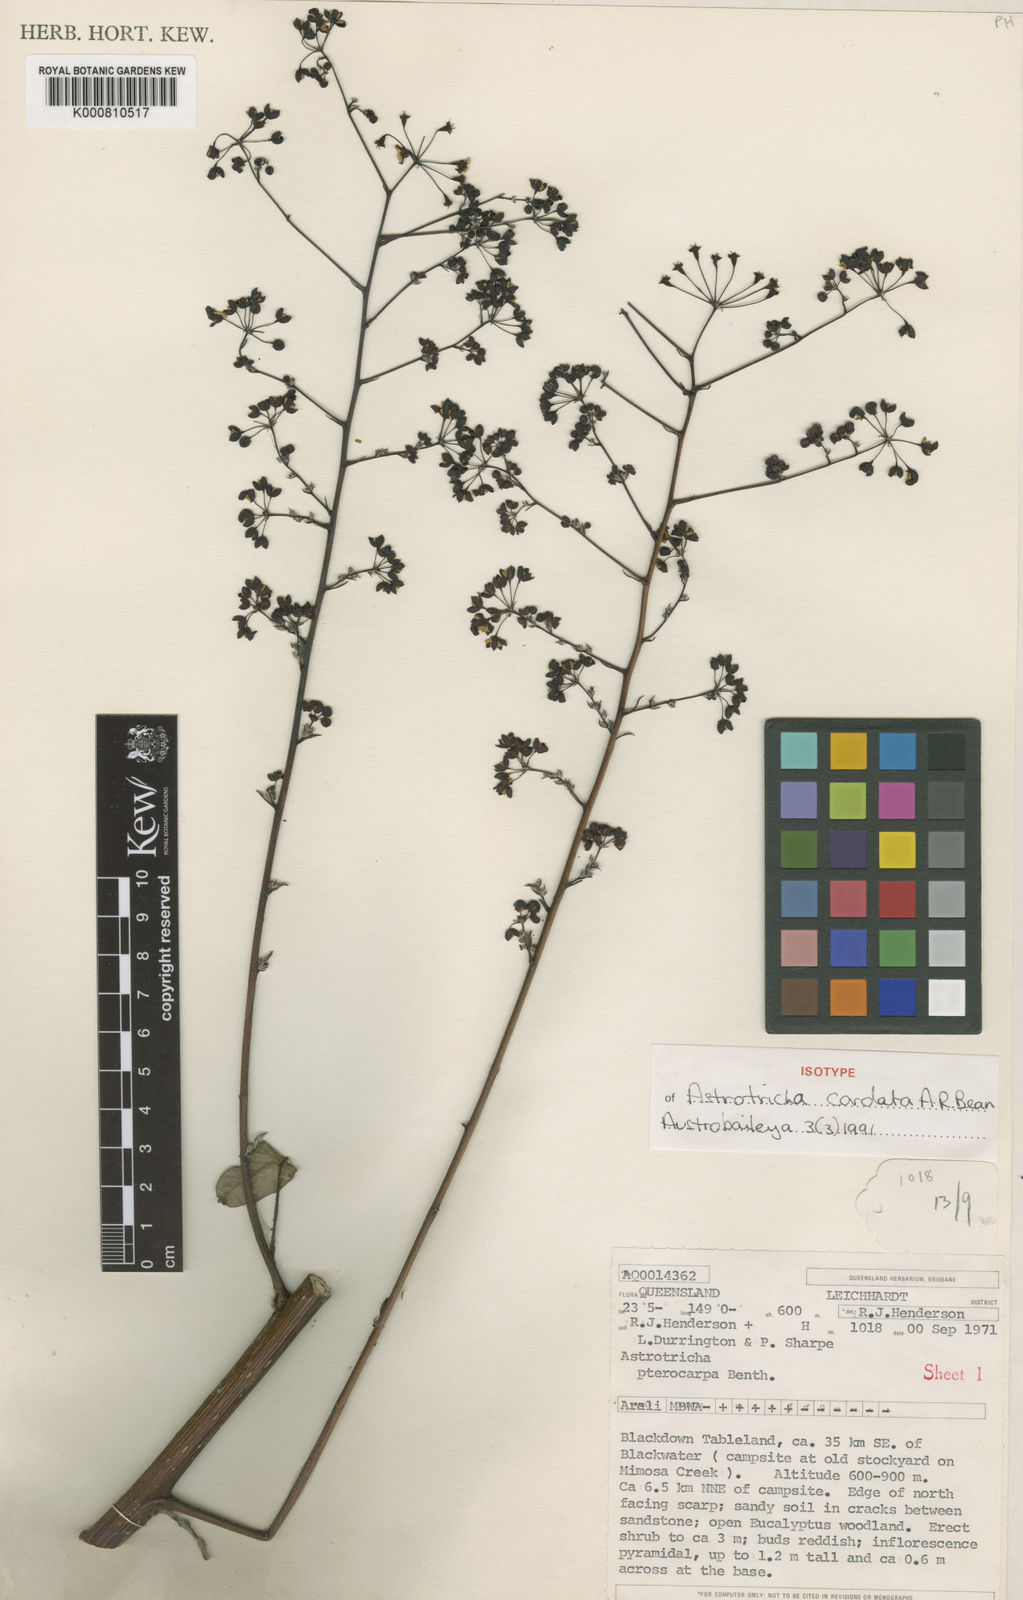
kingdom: Plantae
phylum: Tracheophyta
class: Magnoliopsida
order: Apiales
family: Araliaceae
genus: Astrotricha
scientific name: Astrotricha cordata
